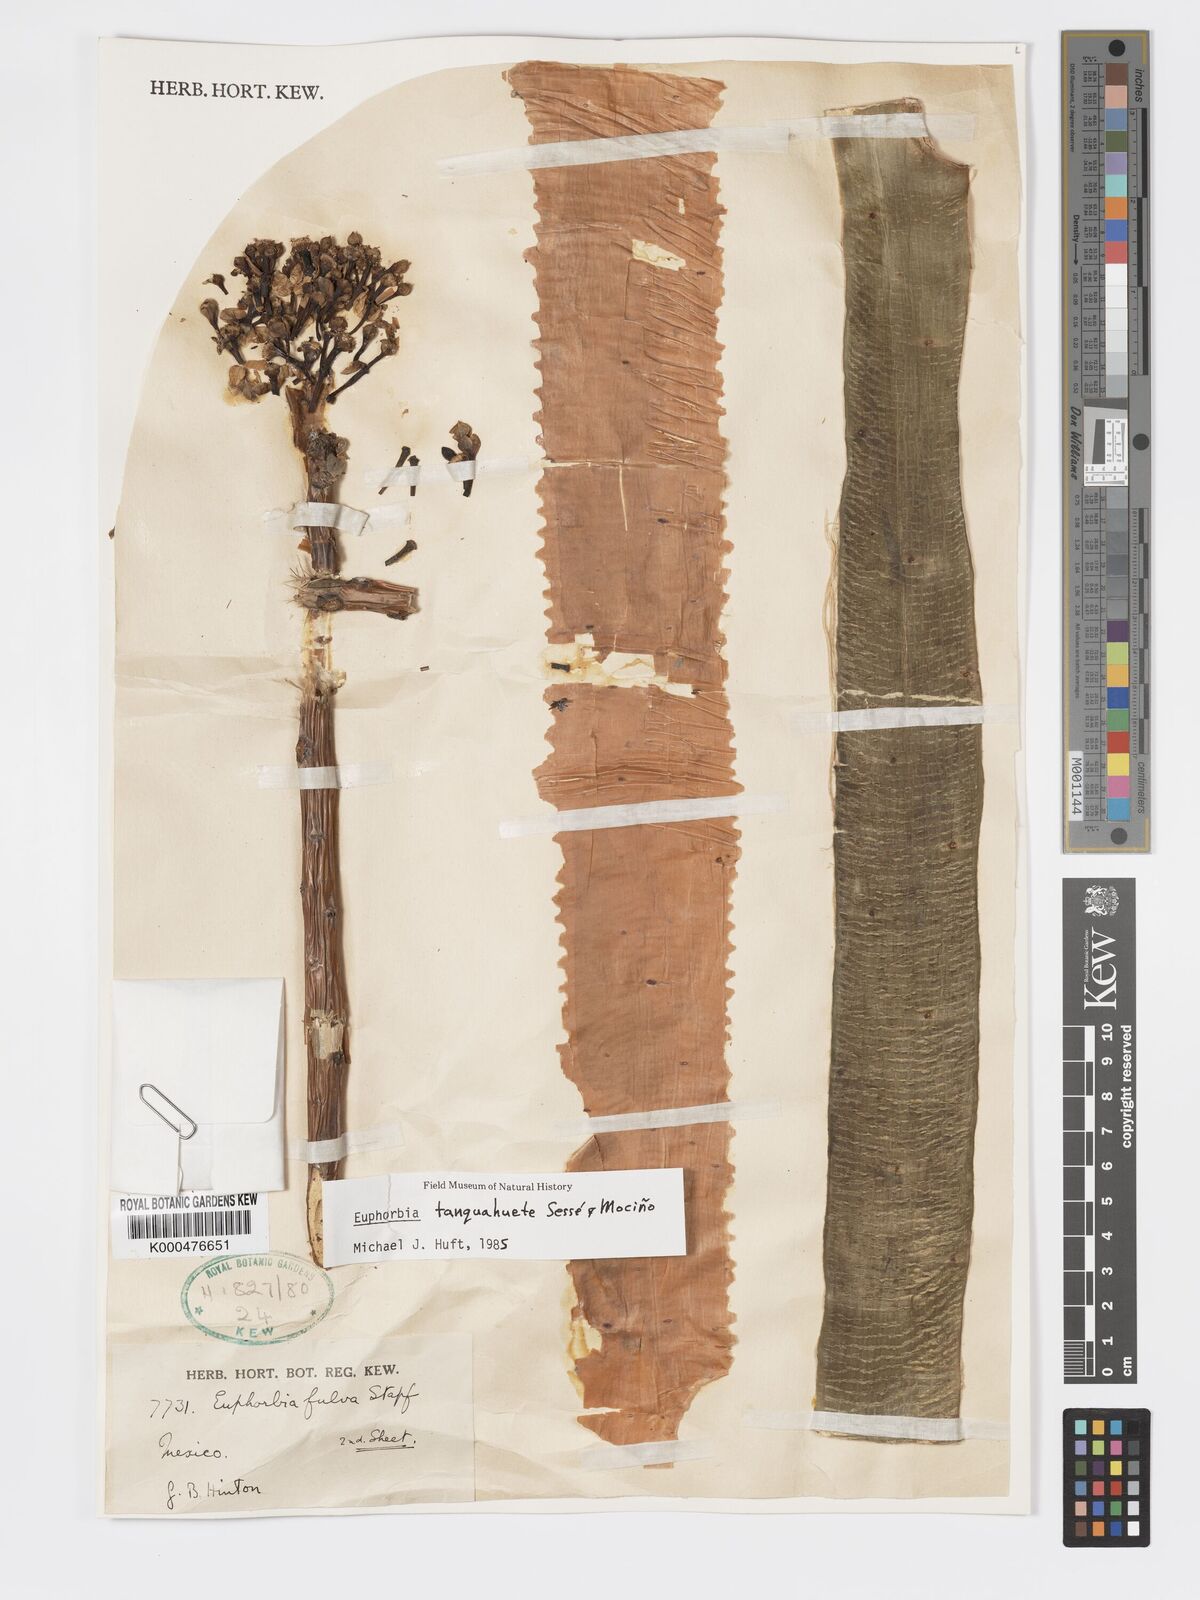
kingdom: Plantae
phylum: Tracheophyta
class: Magnoliopsida
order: Malpighiales
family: Euphorbiaceae
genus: Euphorbia
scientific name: Euphorbia
